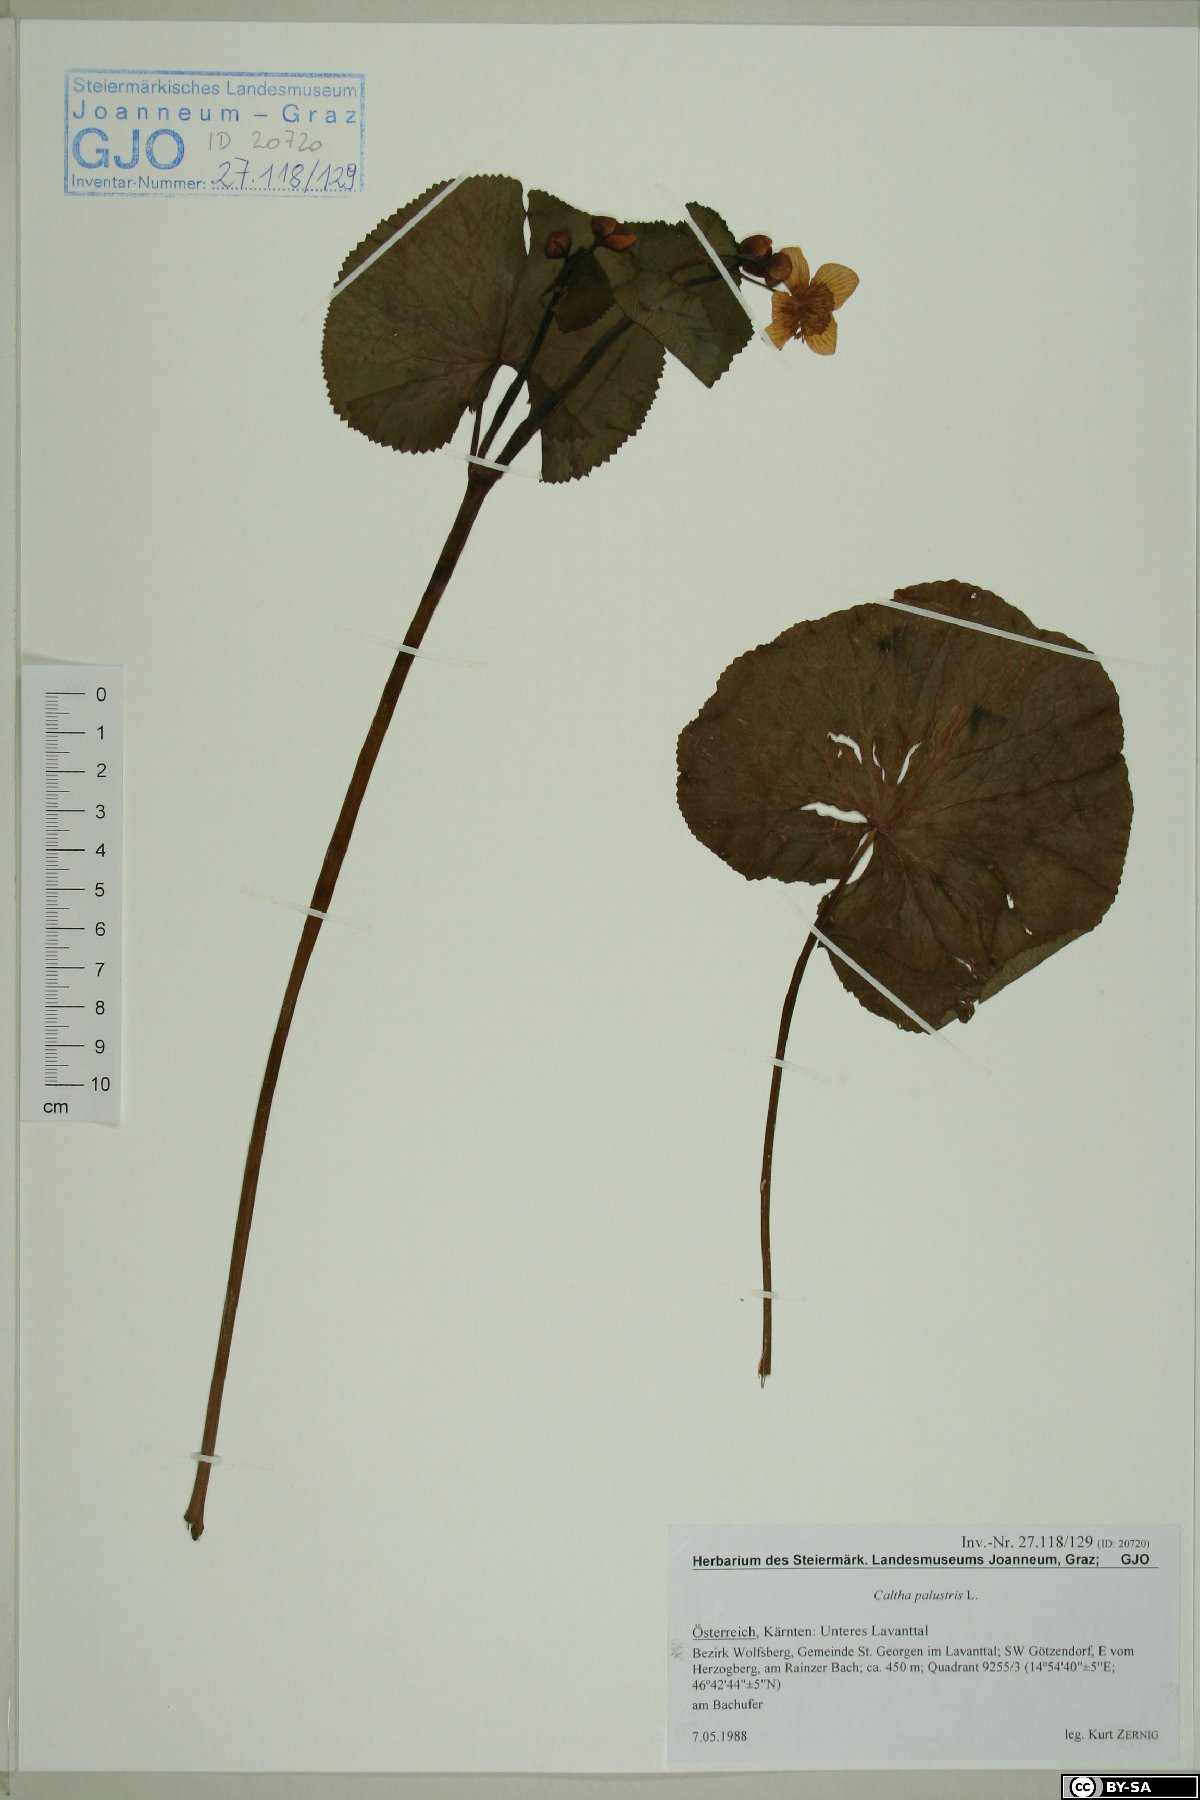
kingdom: Plantae
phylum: Tracheophyta
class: Magnoliopsida
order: Ranunculales
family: Ranunculaceae
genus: Caltha
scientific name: Caltha palustris
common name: Marsh marigold
